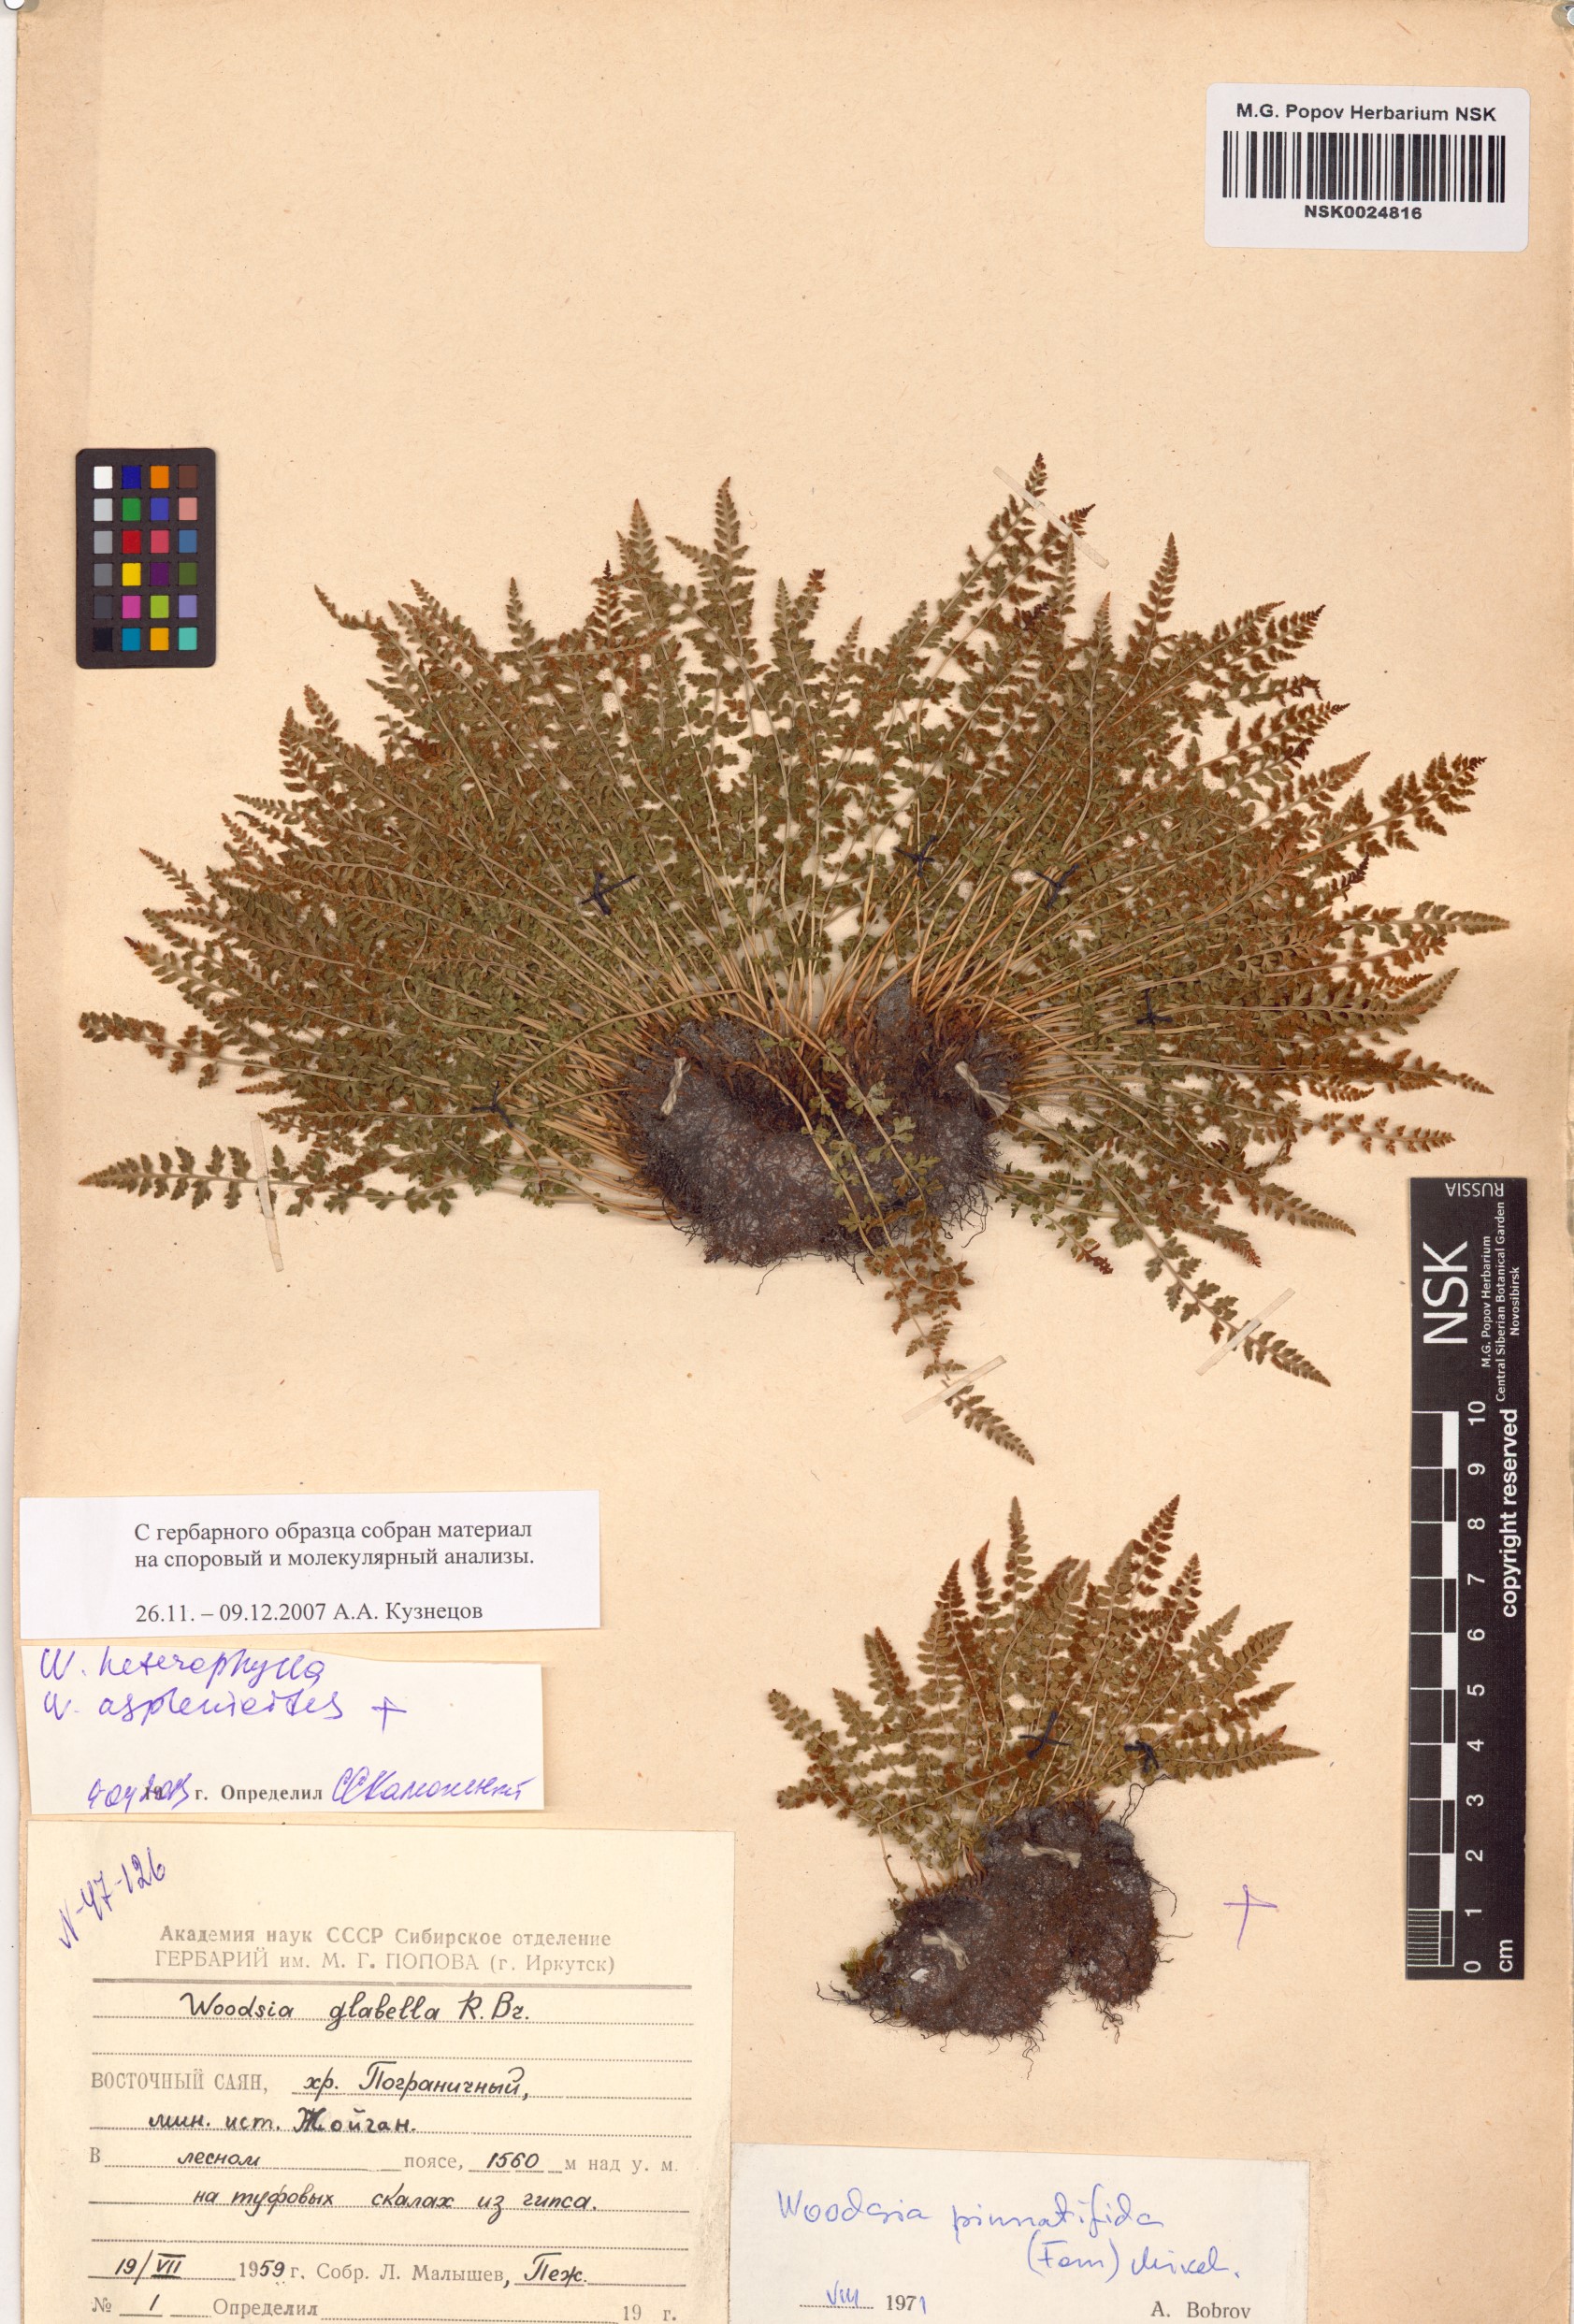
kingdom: Plantae
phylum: Tracheophyta
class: Polypodiopsida
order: Polypodiales
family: Woodsiaceae
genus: Woodsia
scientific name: Woodsia pulchella
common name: Graceful woodsia
